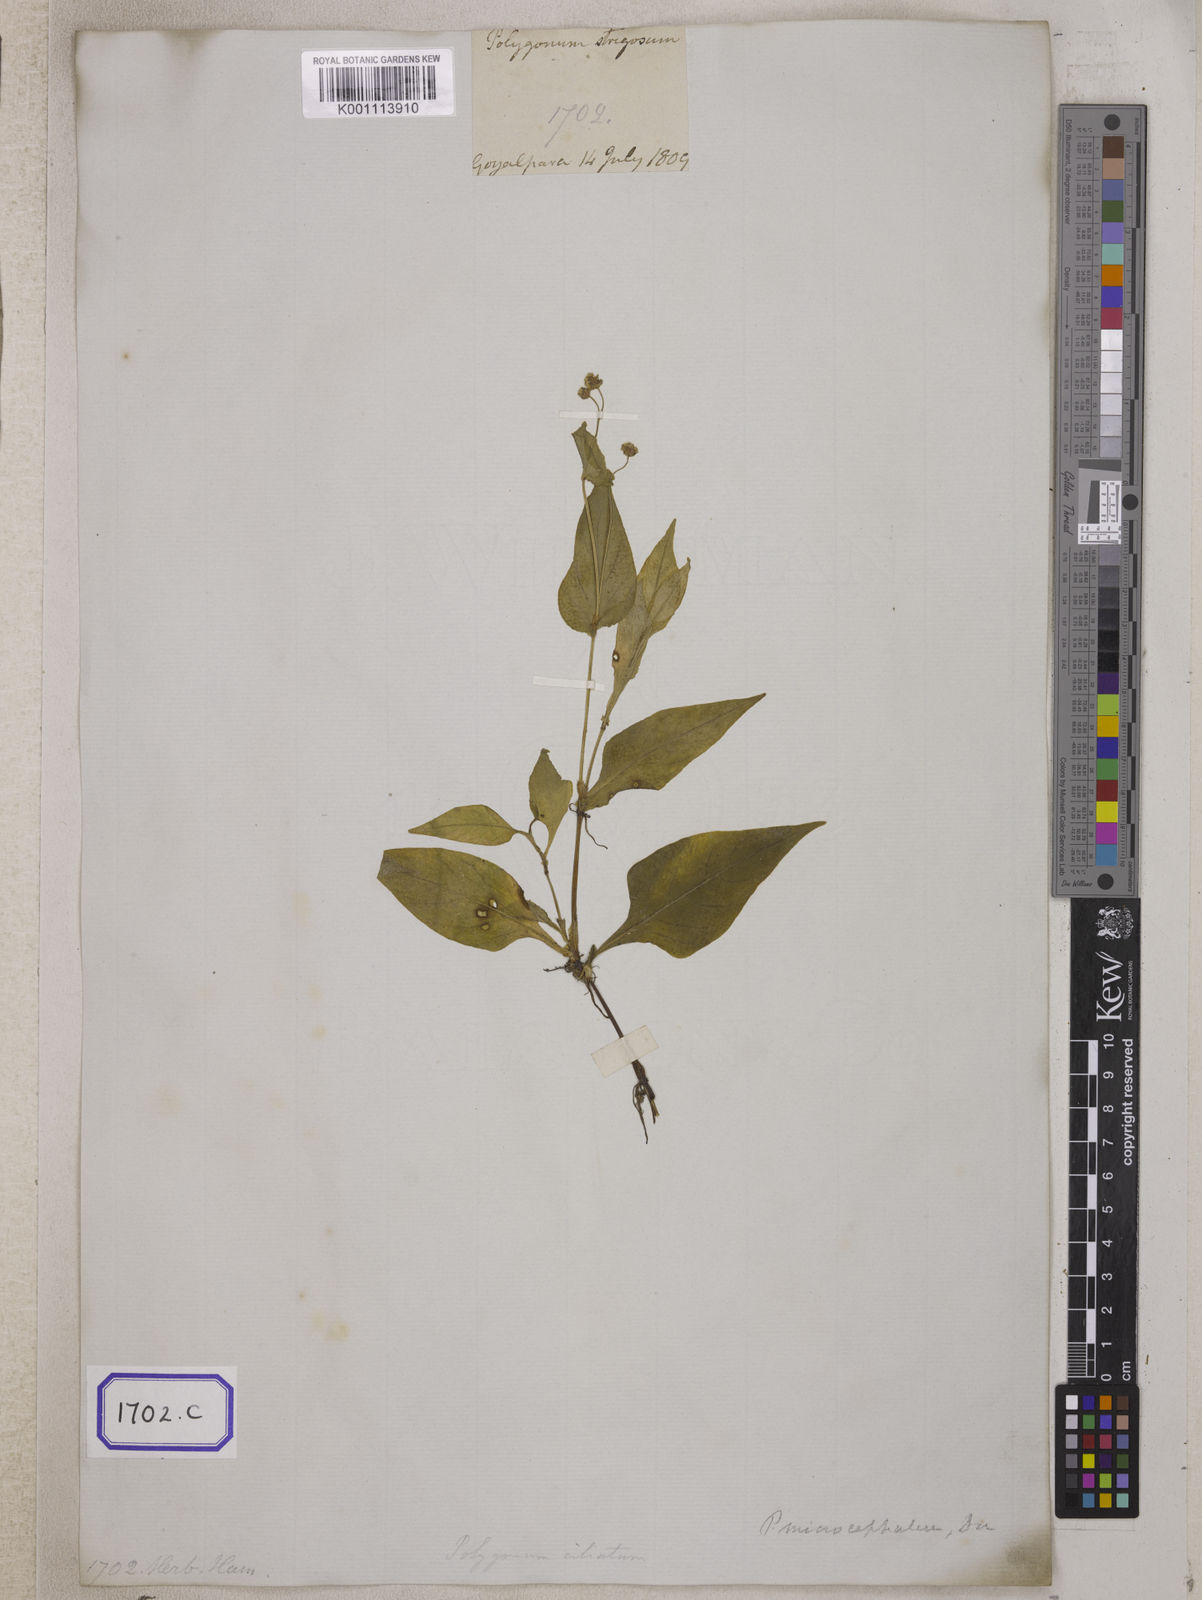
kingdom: Plantae
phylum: Tracheophyta
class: Magnoliopsida
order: Caryophyllales
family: Polygonaceae
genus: Persicaria
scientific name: Persicaria greuteriana
